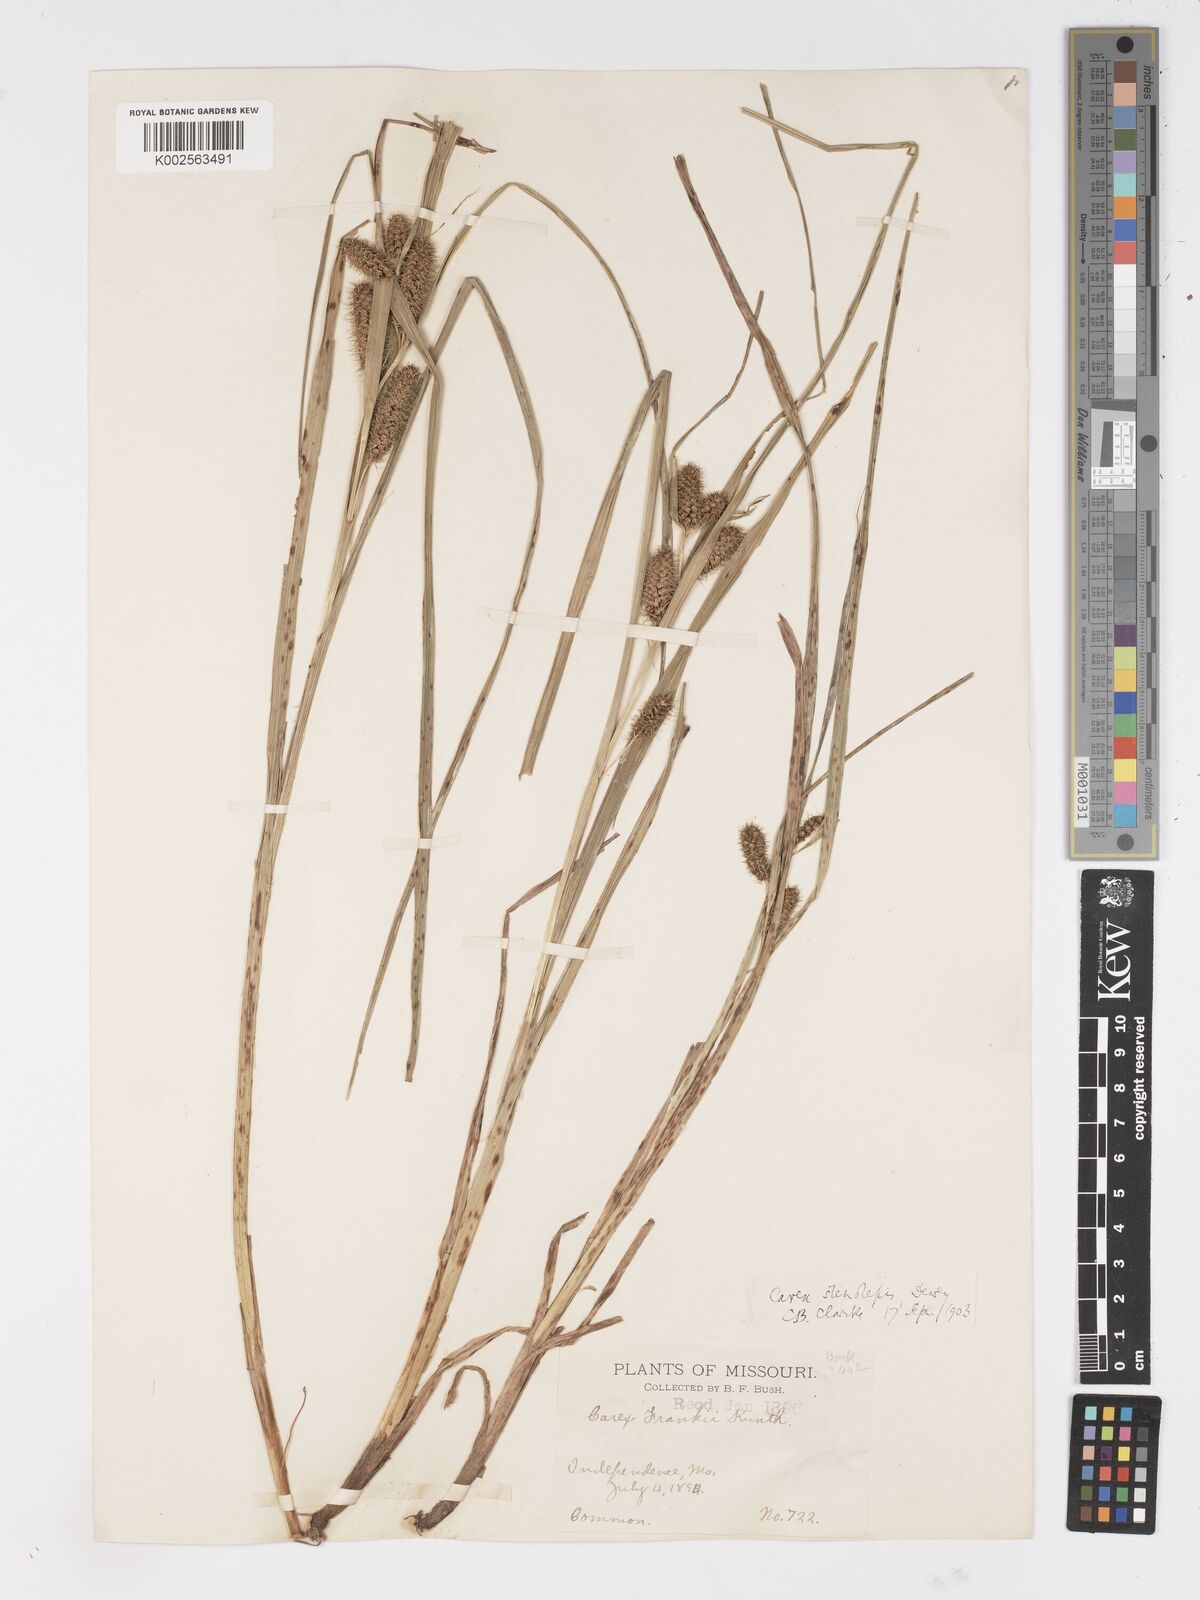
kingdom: Plantae
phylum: Tracheophyta
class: Liliopsida
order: Poales
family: Cyperaceae
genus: Carex
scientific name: Carex frankii
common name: Frank's sedge
